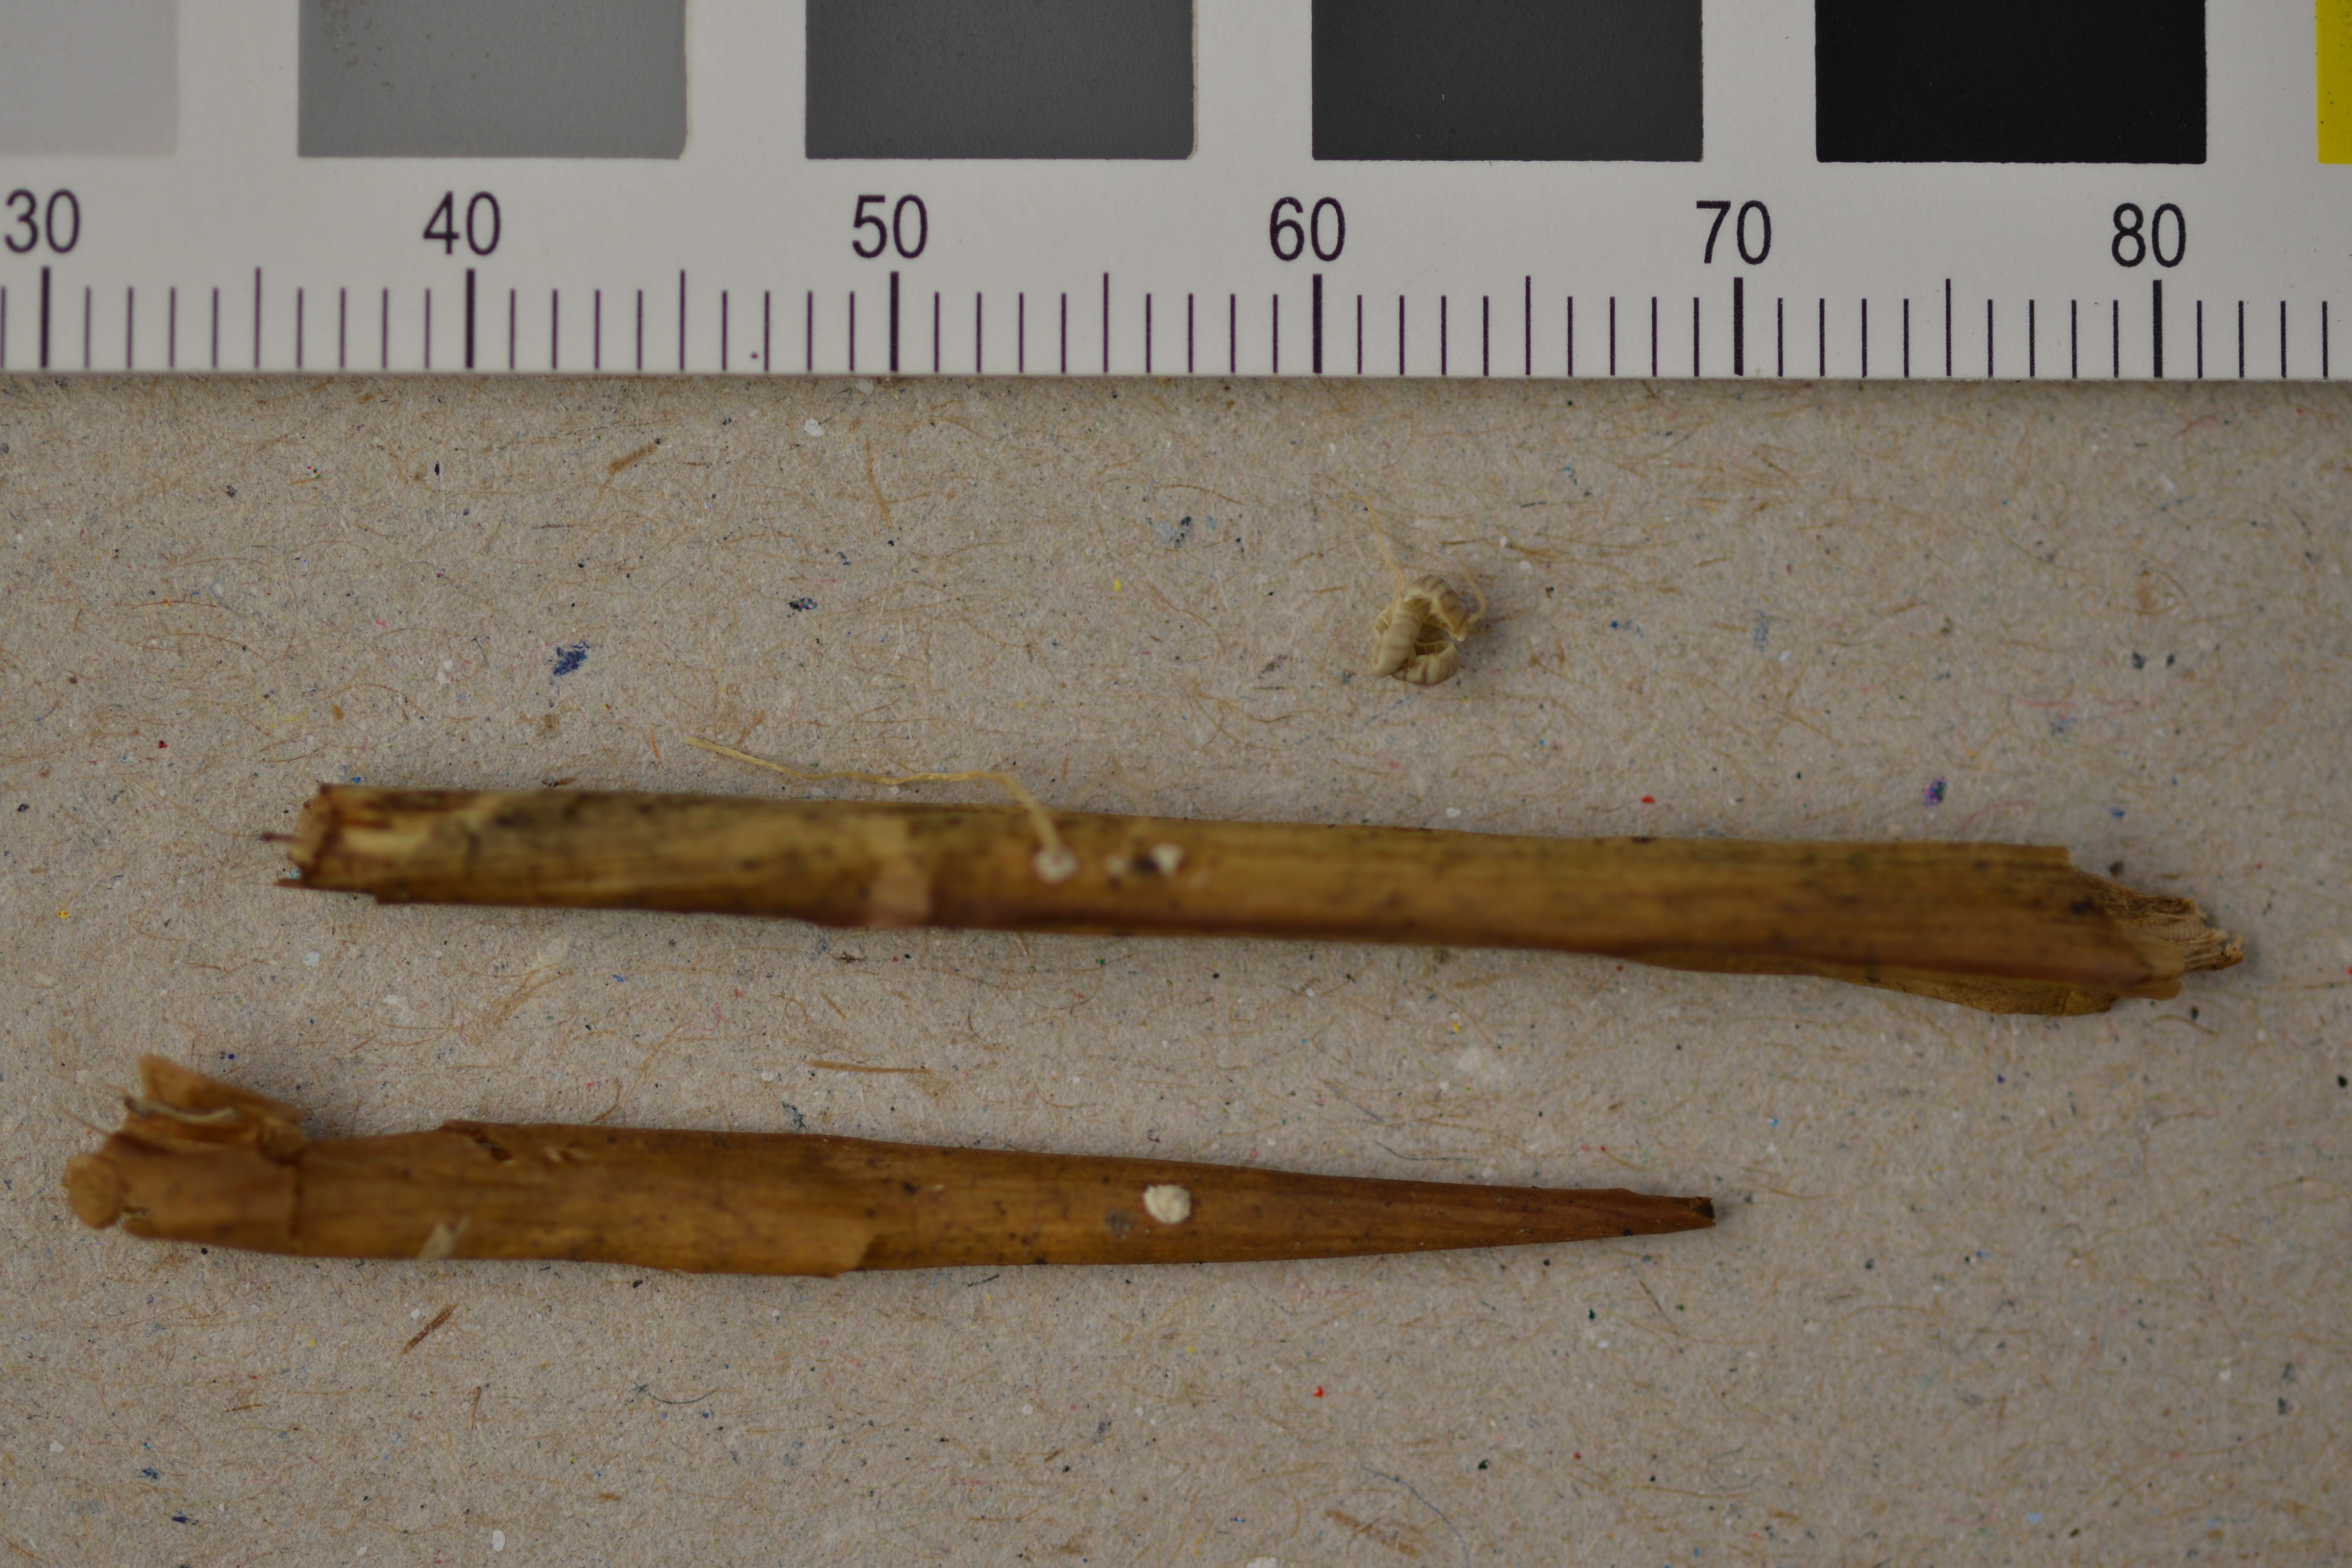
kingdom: Fungi
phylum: Basidiomycota
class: Agaricomycetes
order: Agaricales
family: Mycenaceae
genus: Mycena
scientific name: Mycena bulbosa
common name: Rush bonnet
